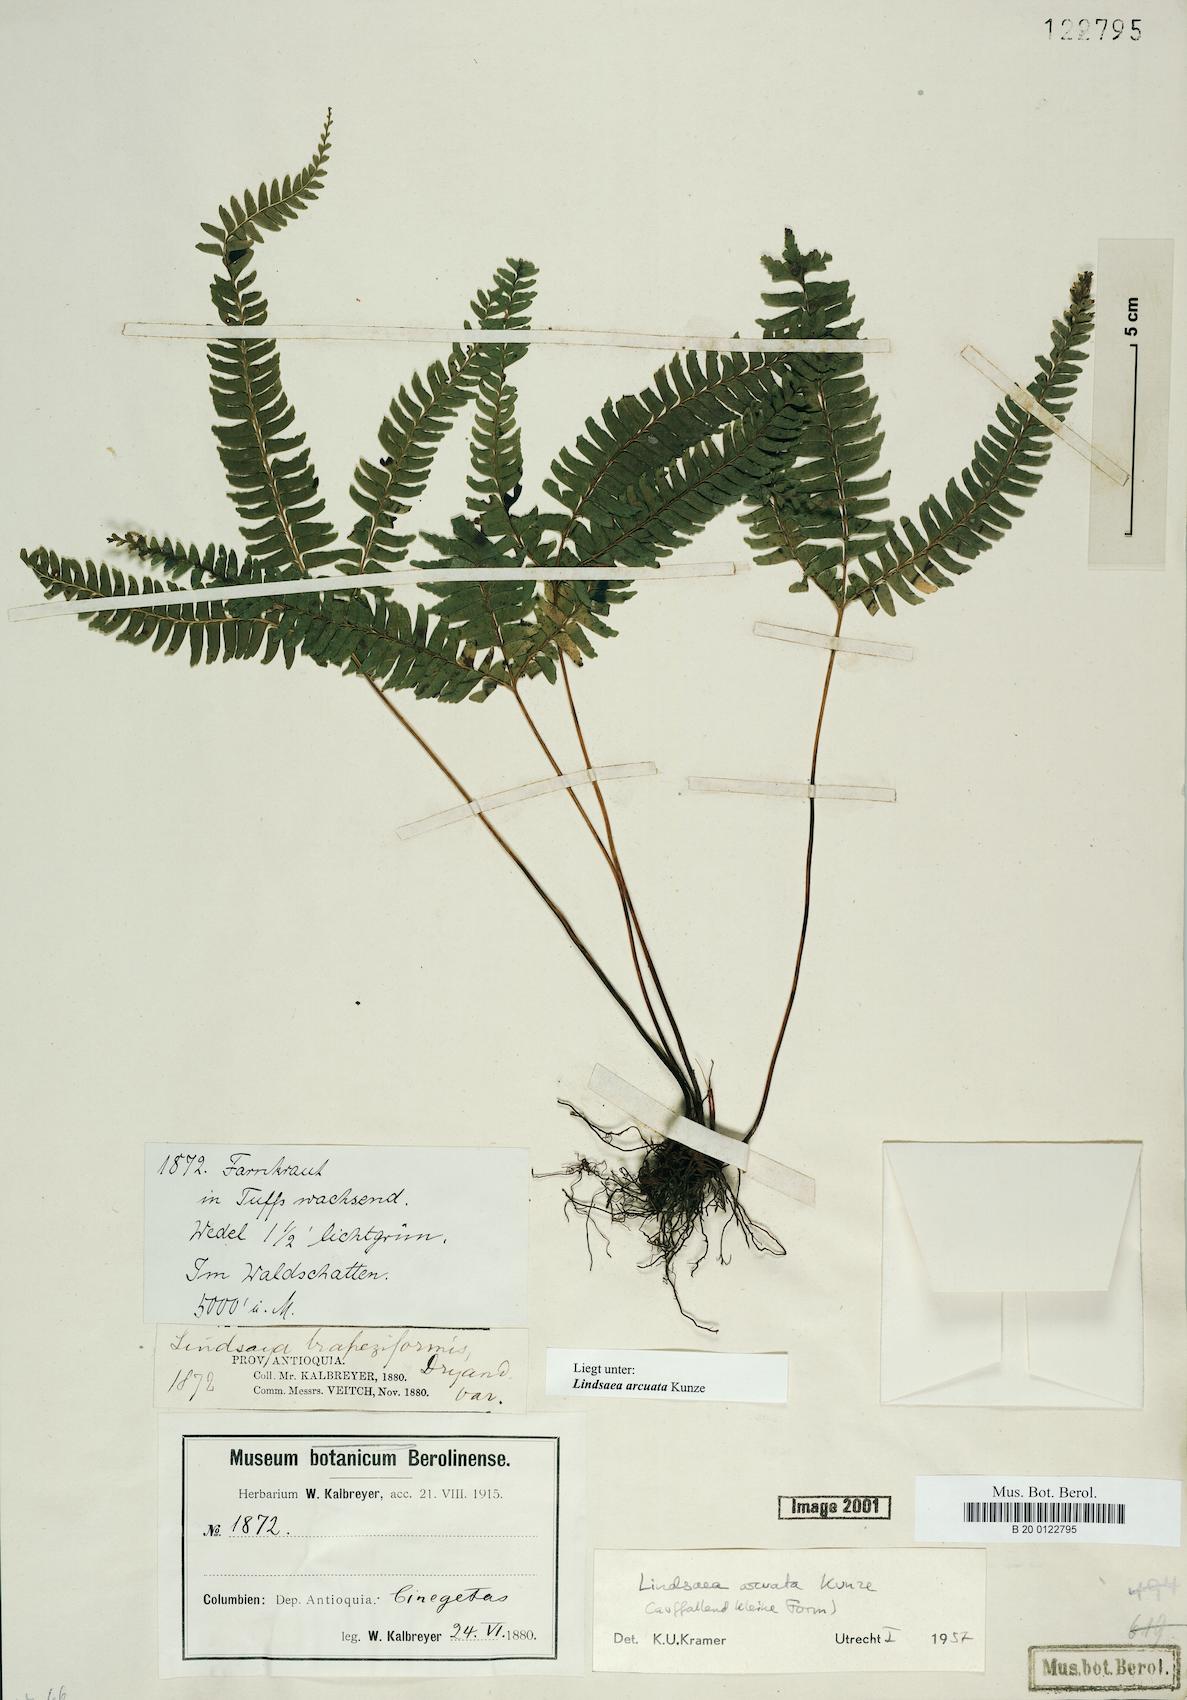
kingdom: Plantae
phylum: Tracheophyta
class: Polypodiopsida
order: Polypodiales
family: Lindsaeaceae
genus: Lindsaea
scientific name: Lindsaea arcuata
